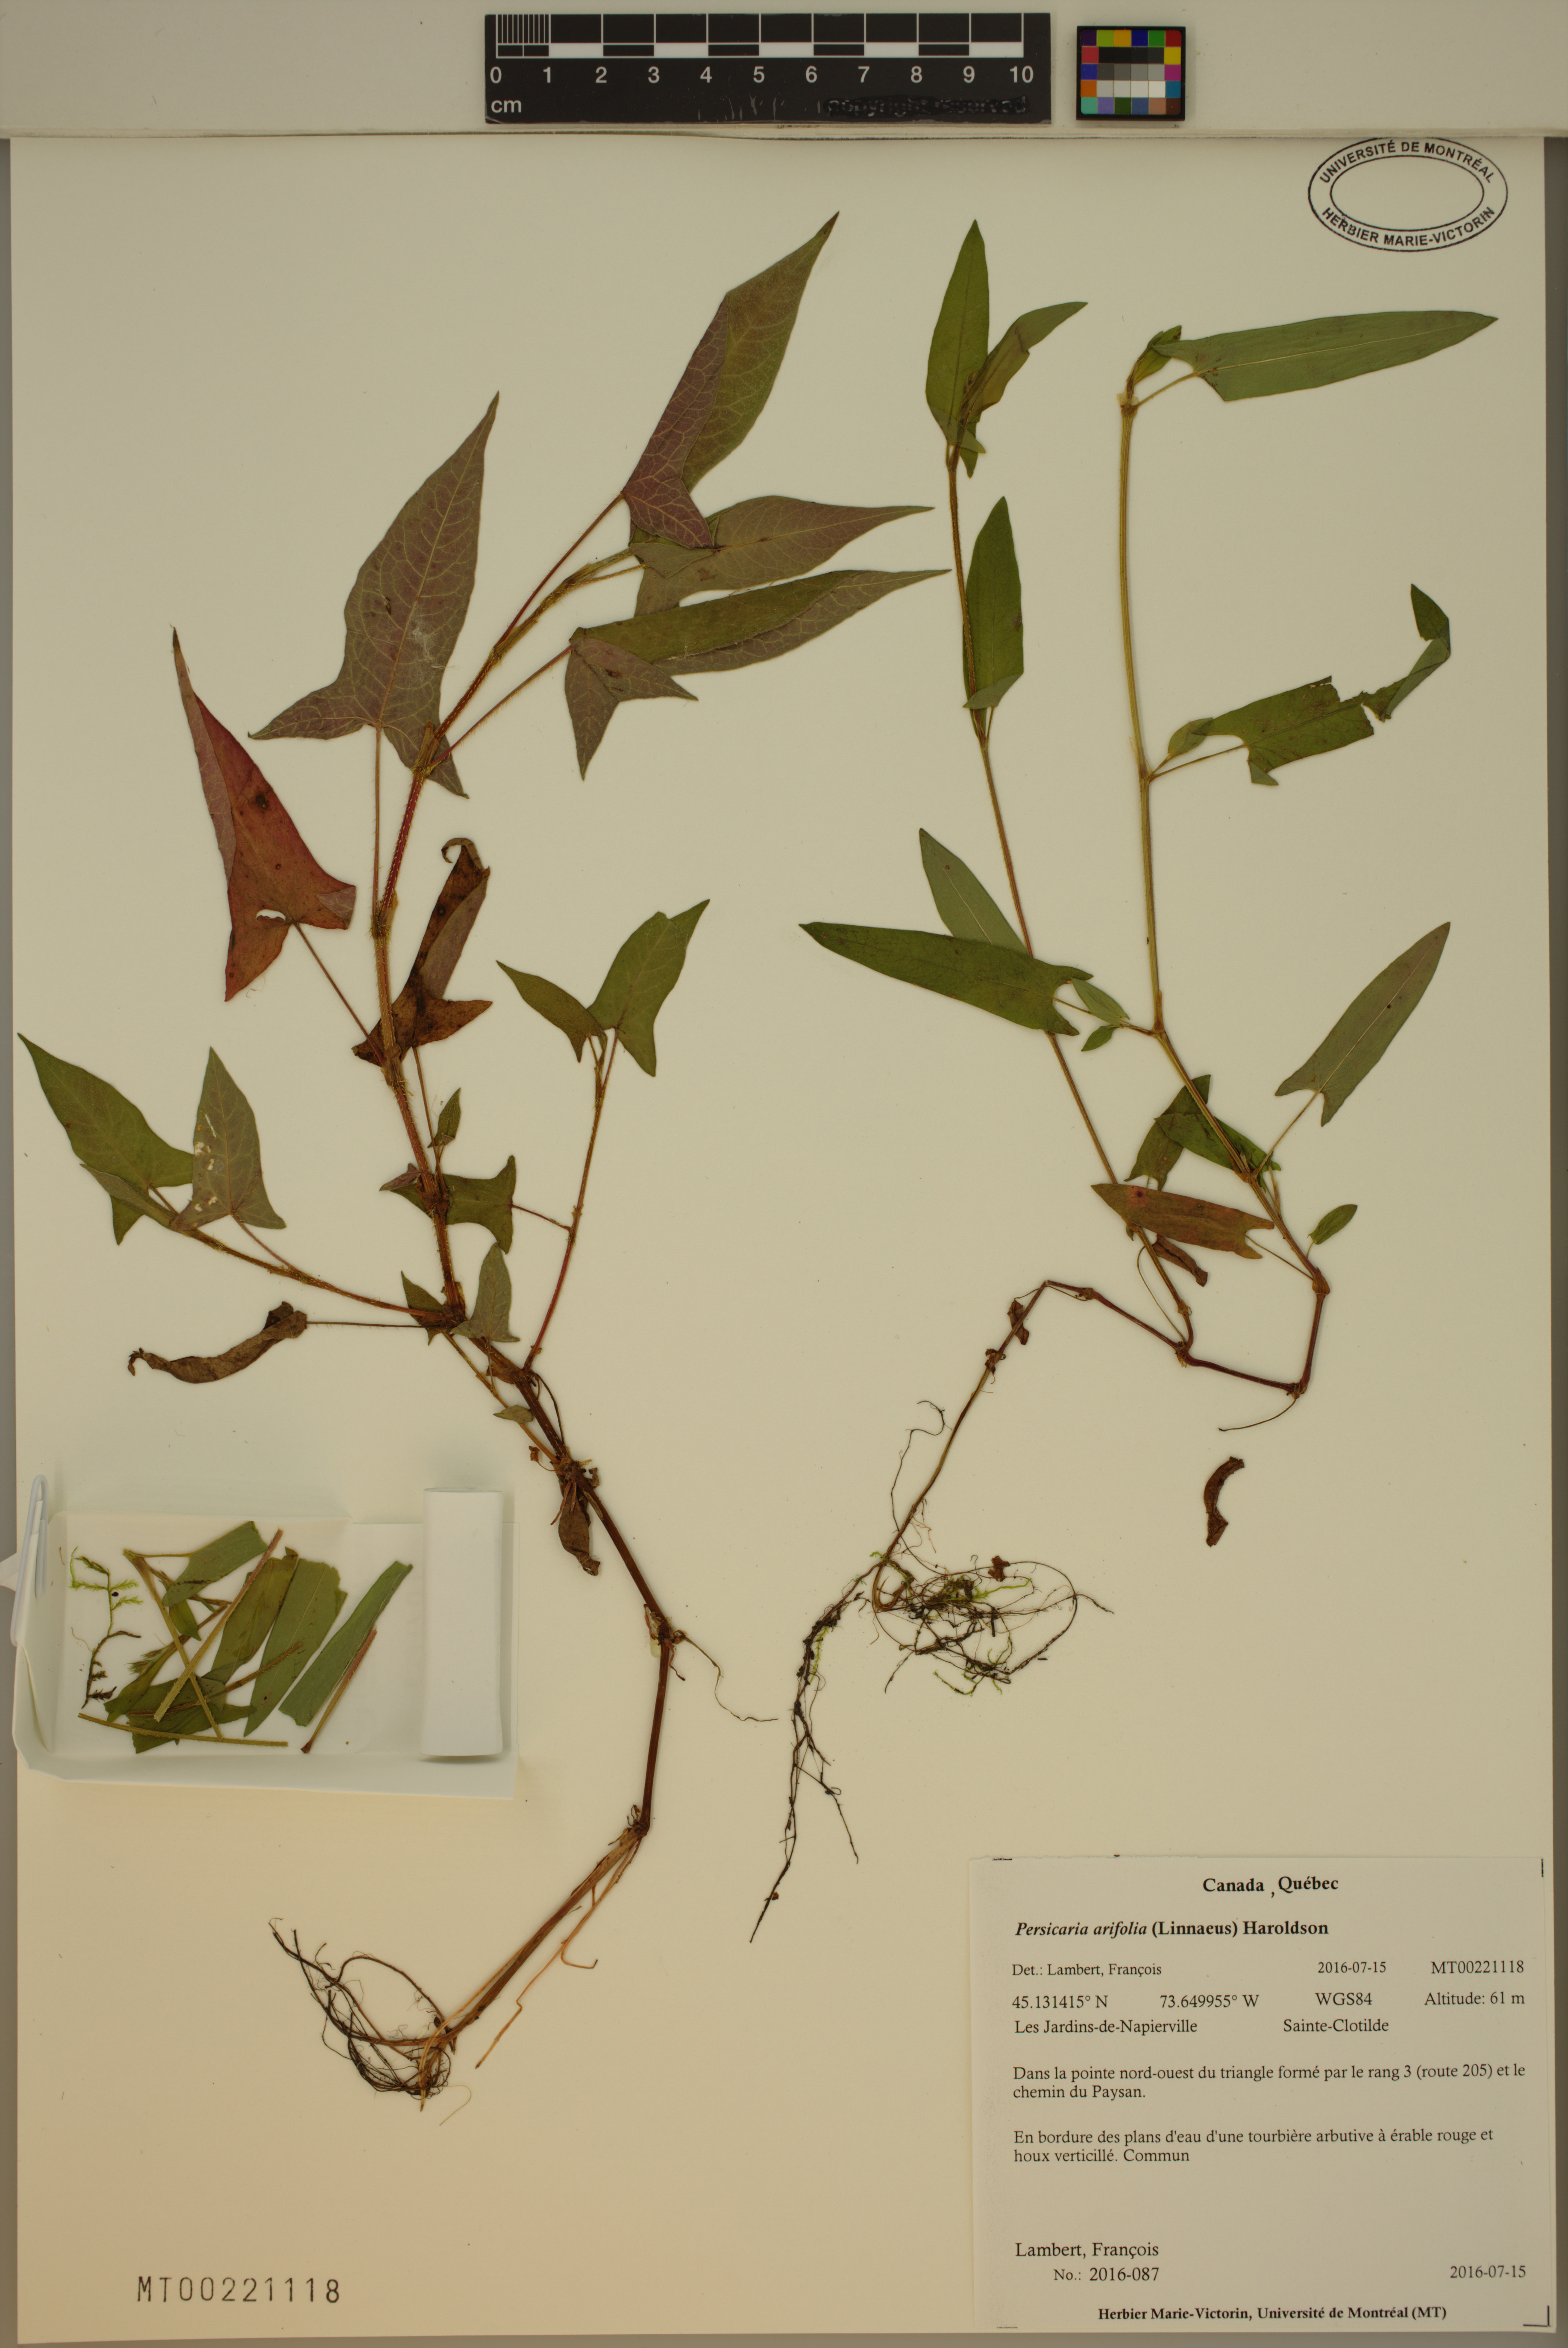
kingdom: Plantae
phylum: Tracheophyta
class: Magnoliopsida
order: Caryophyllales
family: Polygonaceae
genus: Persicaria
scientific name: Persicaria arifolia
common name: Halberd-leaved tear-thumb
